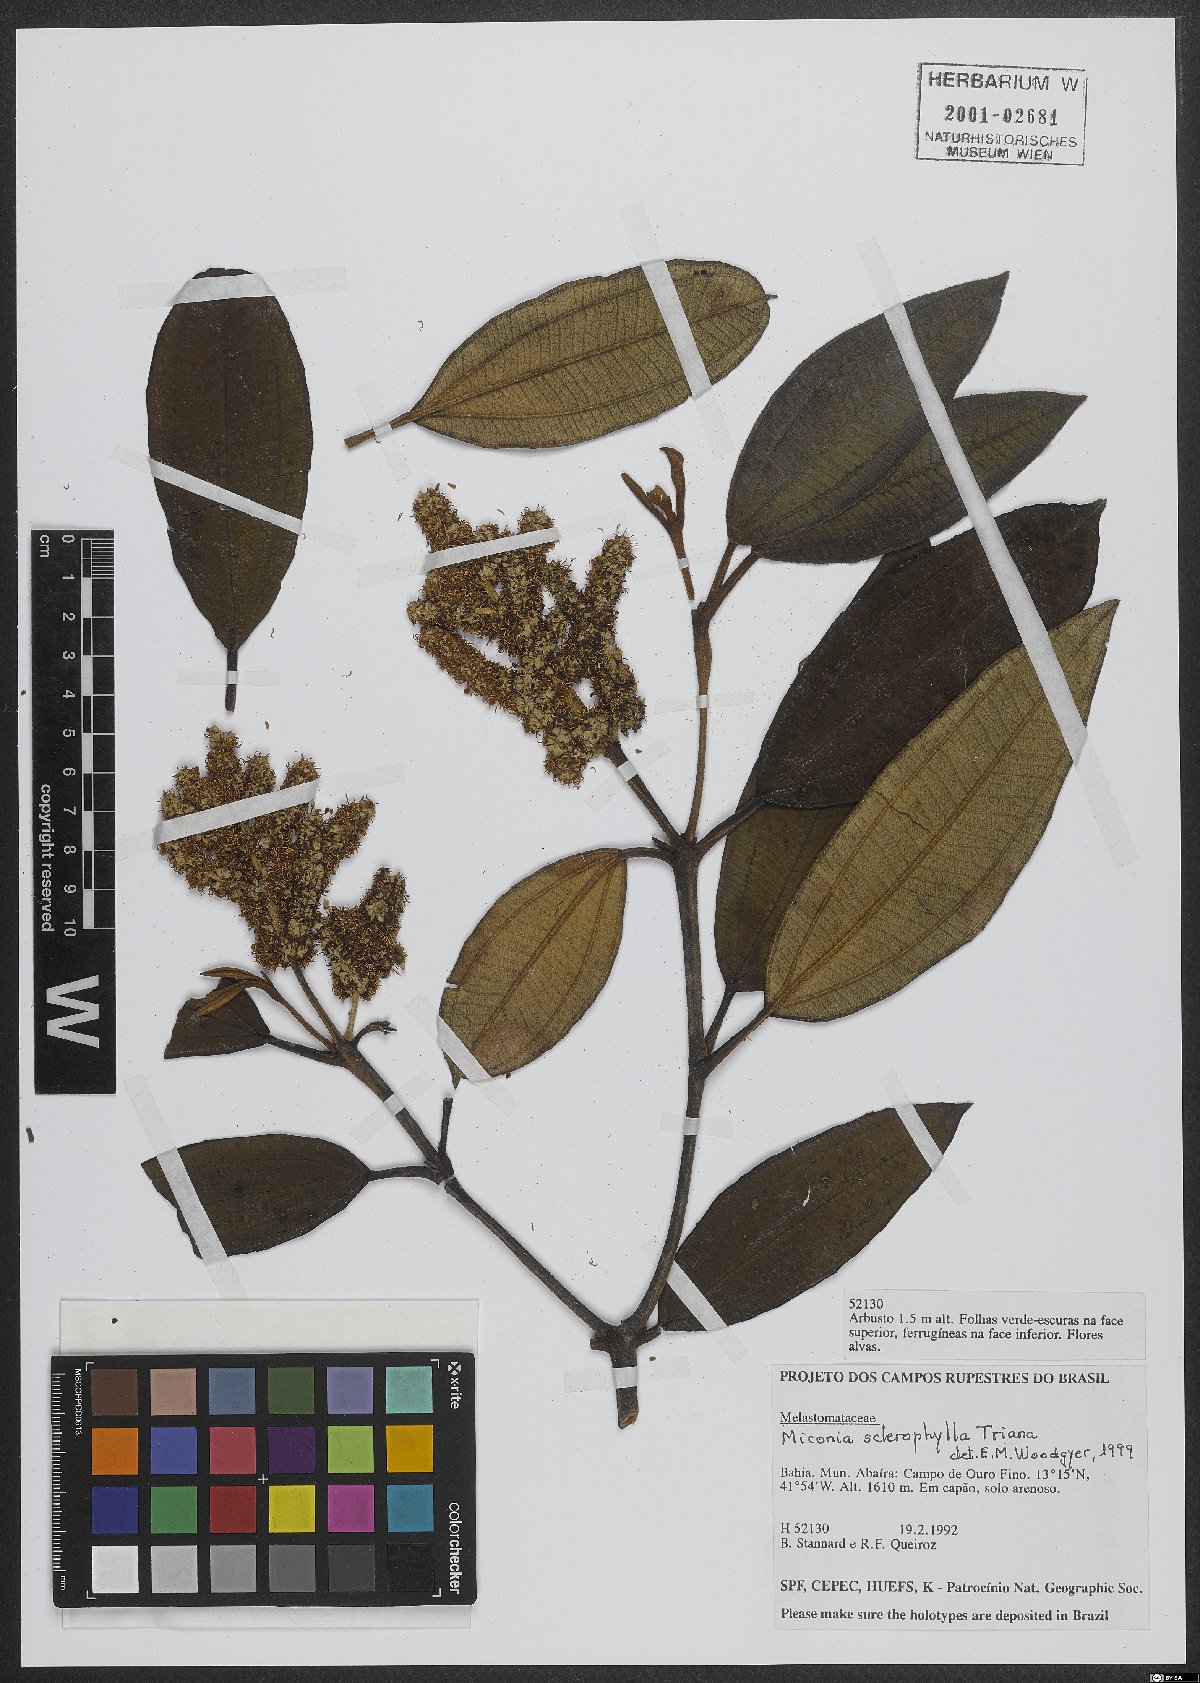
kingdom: Plantae
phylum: Tracheophyta
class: Magnoliopsida
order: Myrtales
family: Melastomataceae
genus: Miconia
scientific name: Miconia sclerophylla
